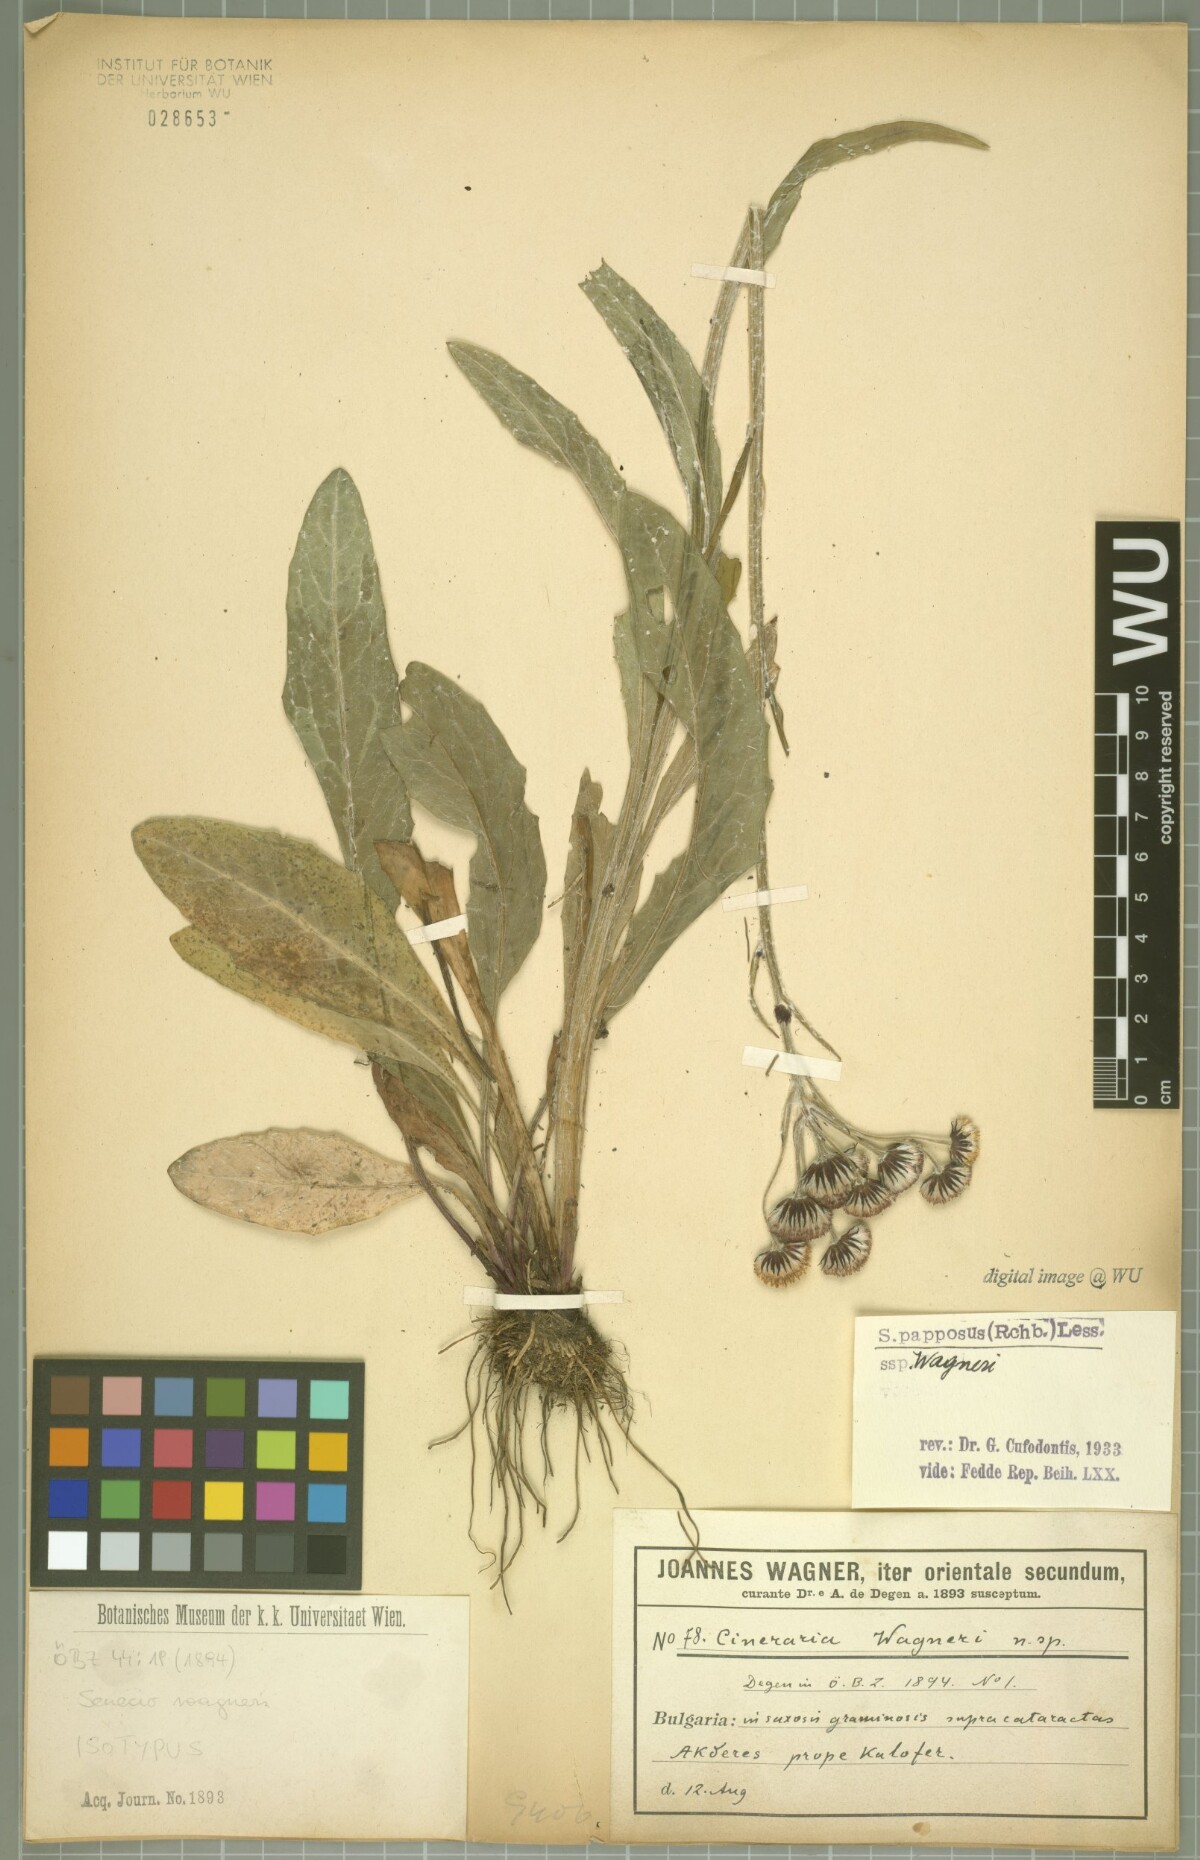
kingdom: Plantae
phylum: Tracheophyta
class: Magnoliopsida
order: Asterales
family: Asteraceae
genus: Tephroseris
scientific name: Tephroseris papposa
